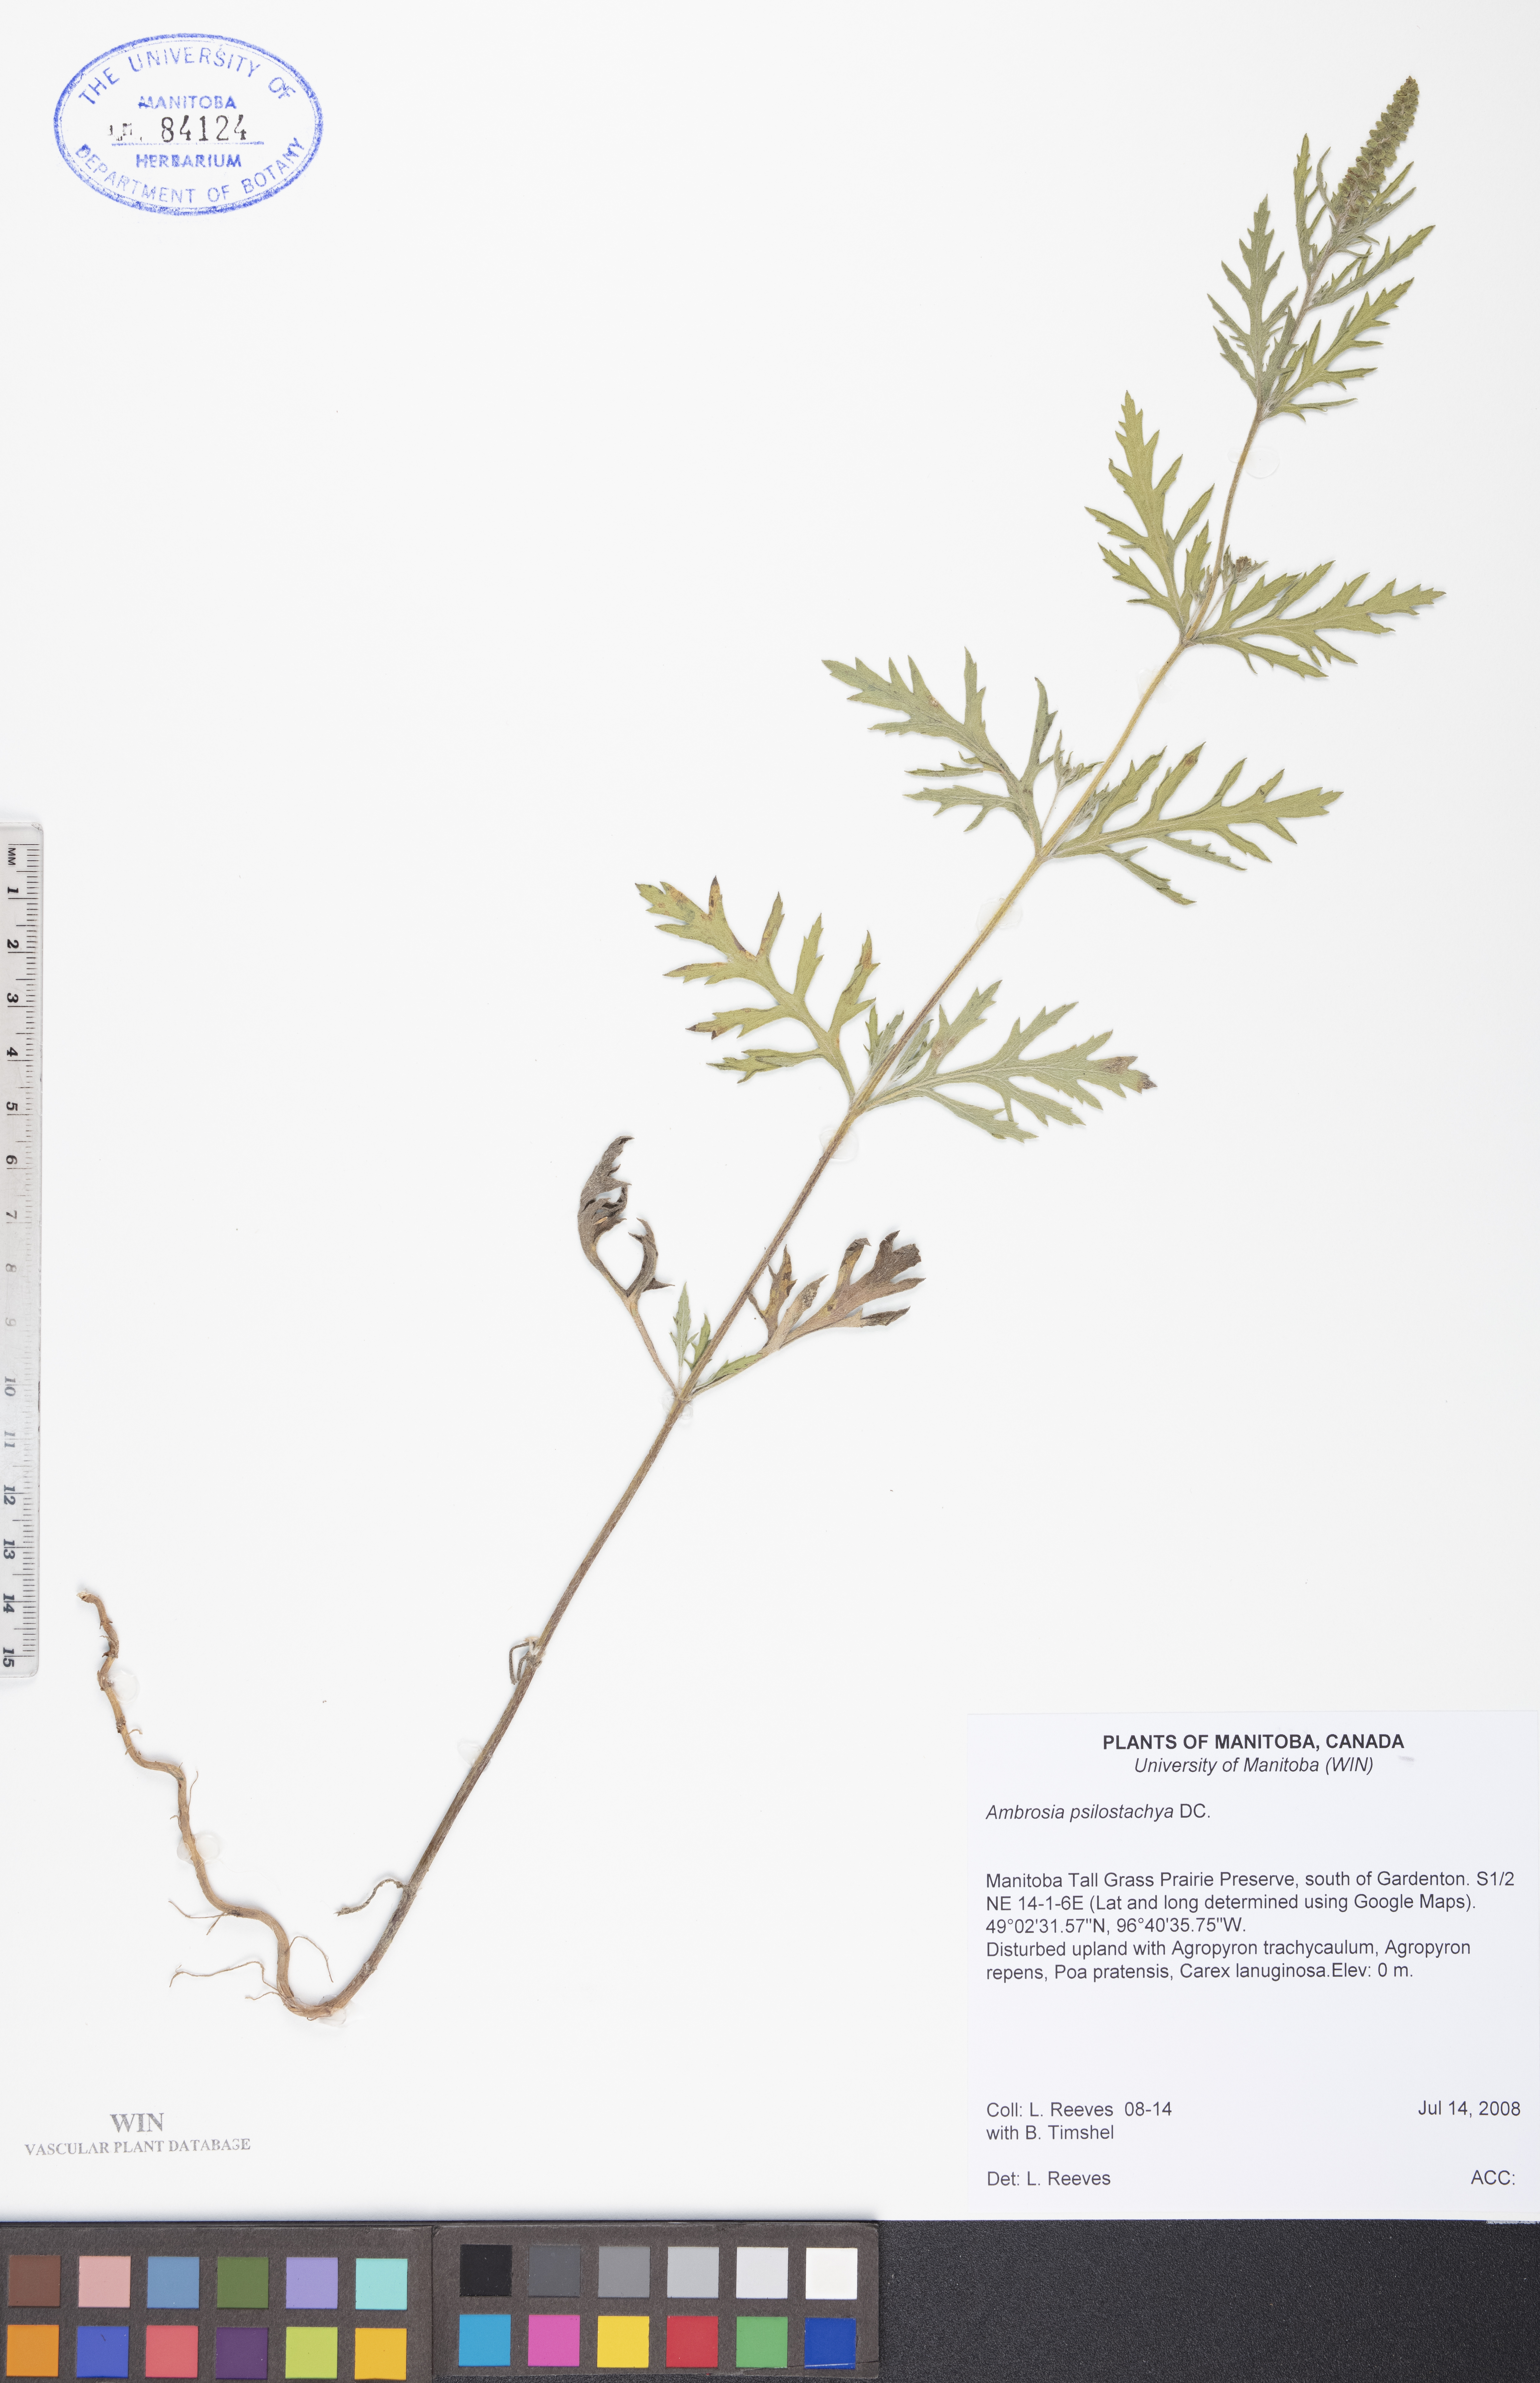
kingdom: Plantae
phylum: Tracheophyta
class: Magnoliopsida
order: Asterales
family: Asteraceae
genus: Ambrosia
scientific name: Ambrosia psilostachya
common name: Perennial ragweed
